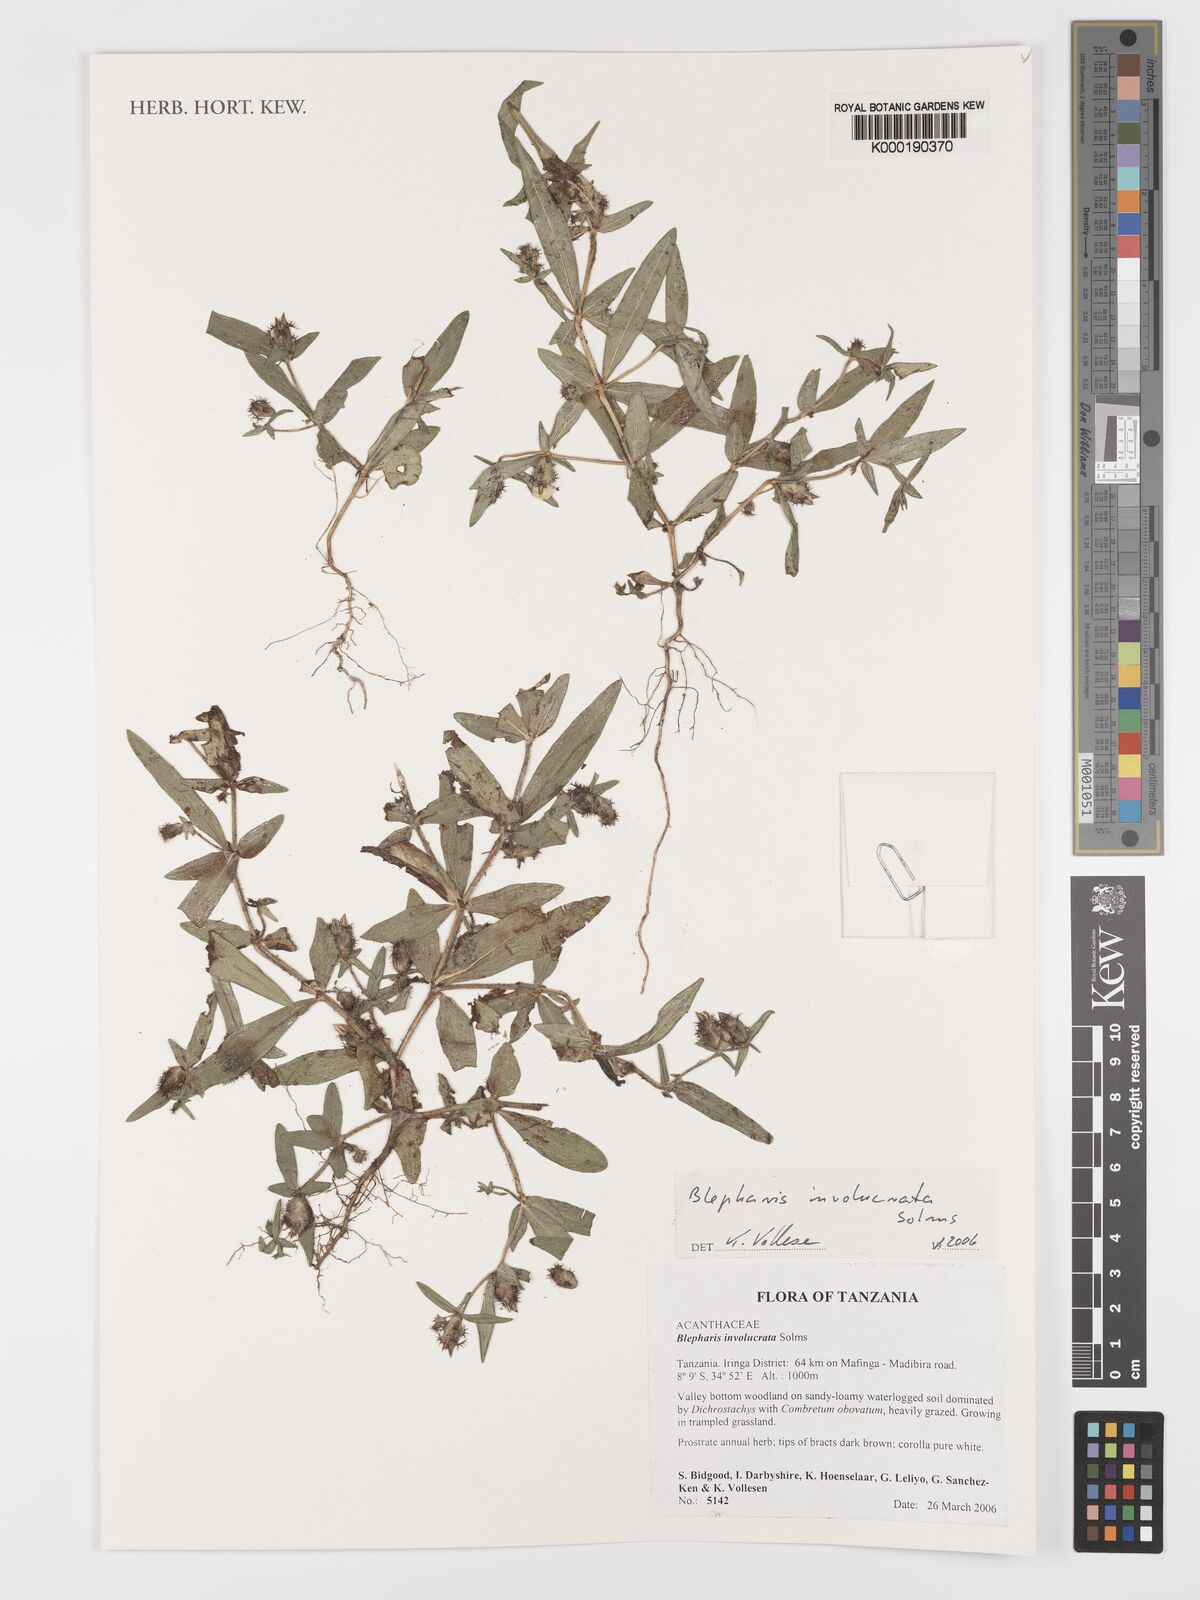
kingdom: Plantae
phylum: Tracheophyta
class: Magnoliopsida
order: Lamiales
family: Acanthaceae
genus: Blepharis
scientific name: Blepharis
